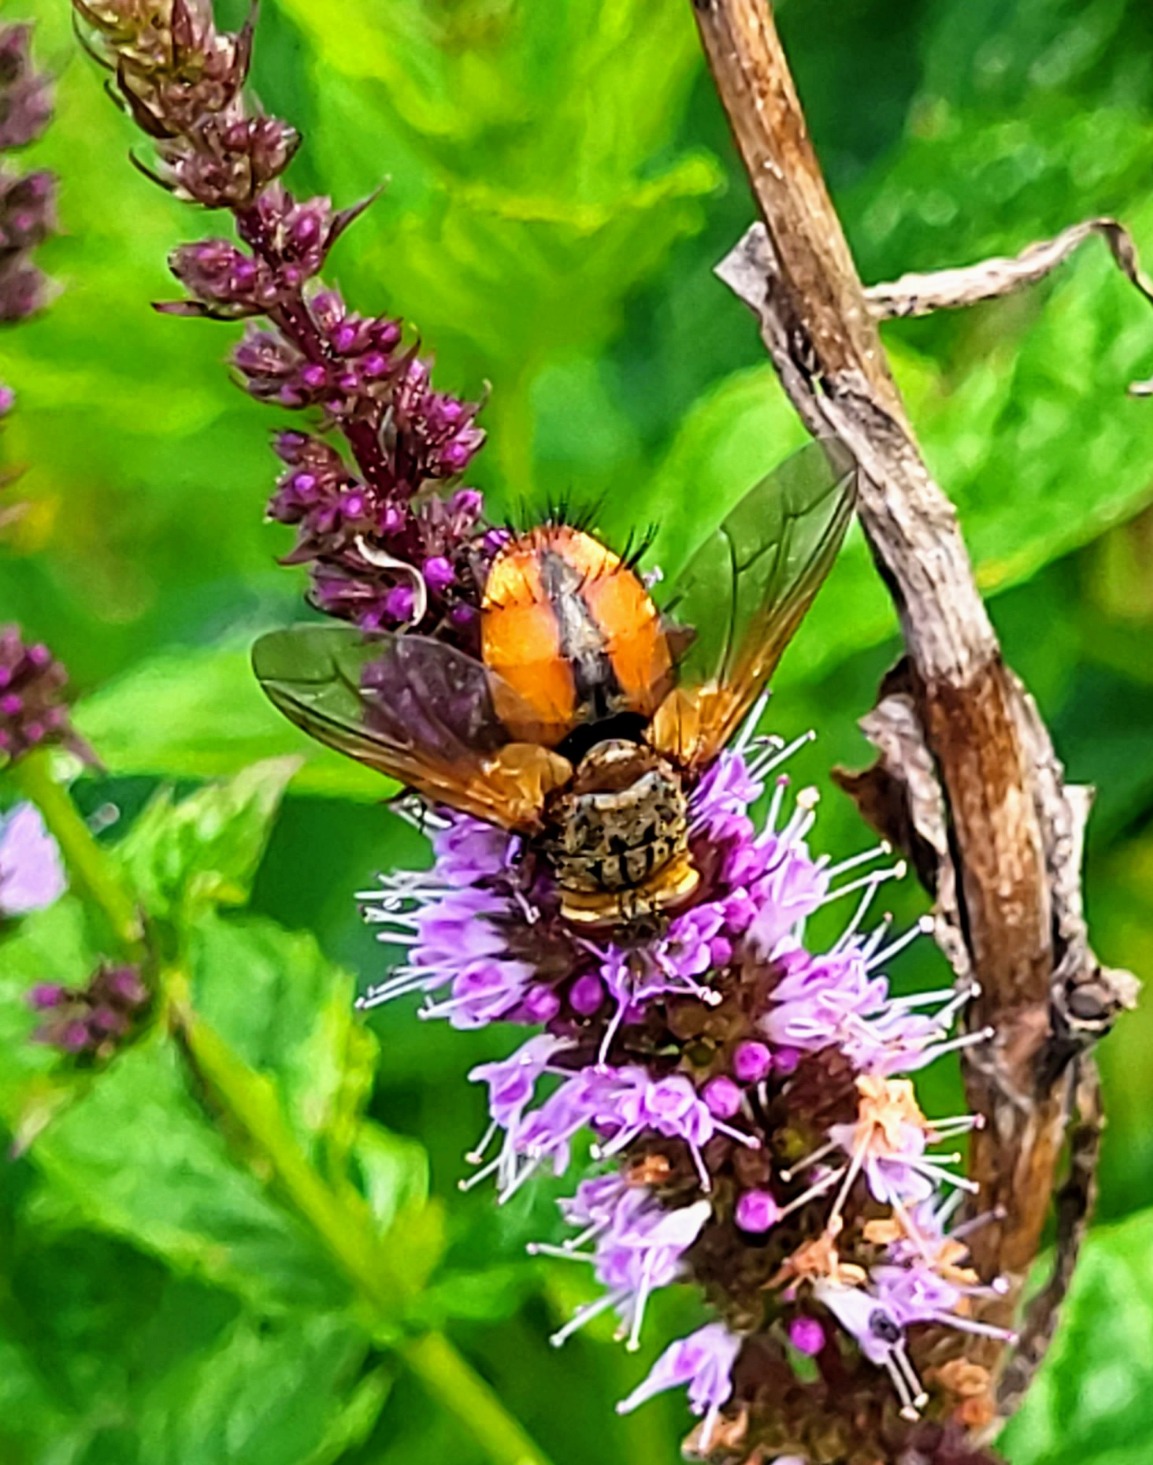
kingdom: Animalia
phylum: Arthropoda
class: Insecta
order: Diptera
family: Tachinidae
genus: Tachina
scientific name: Tachina fera
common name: Mellemfluen oskar
